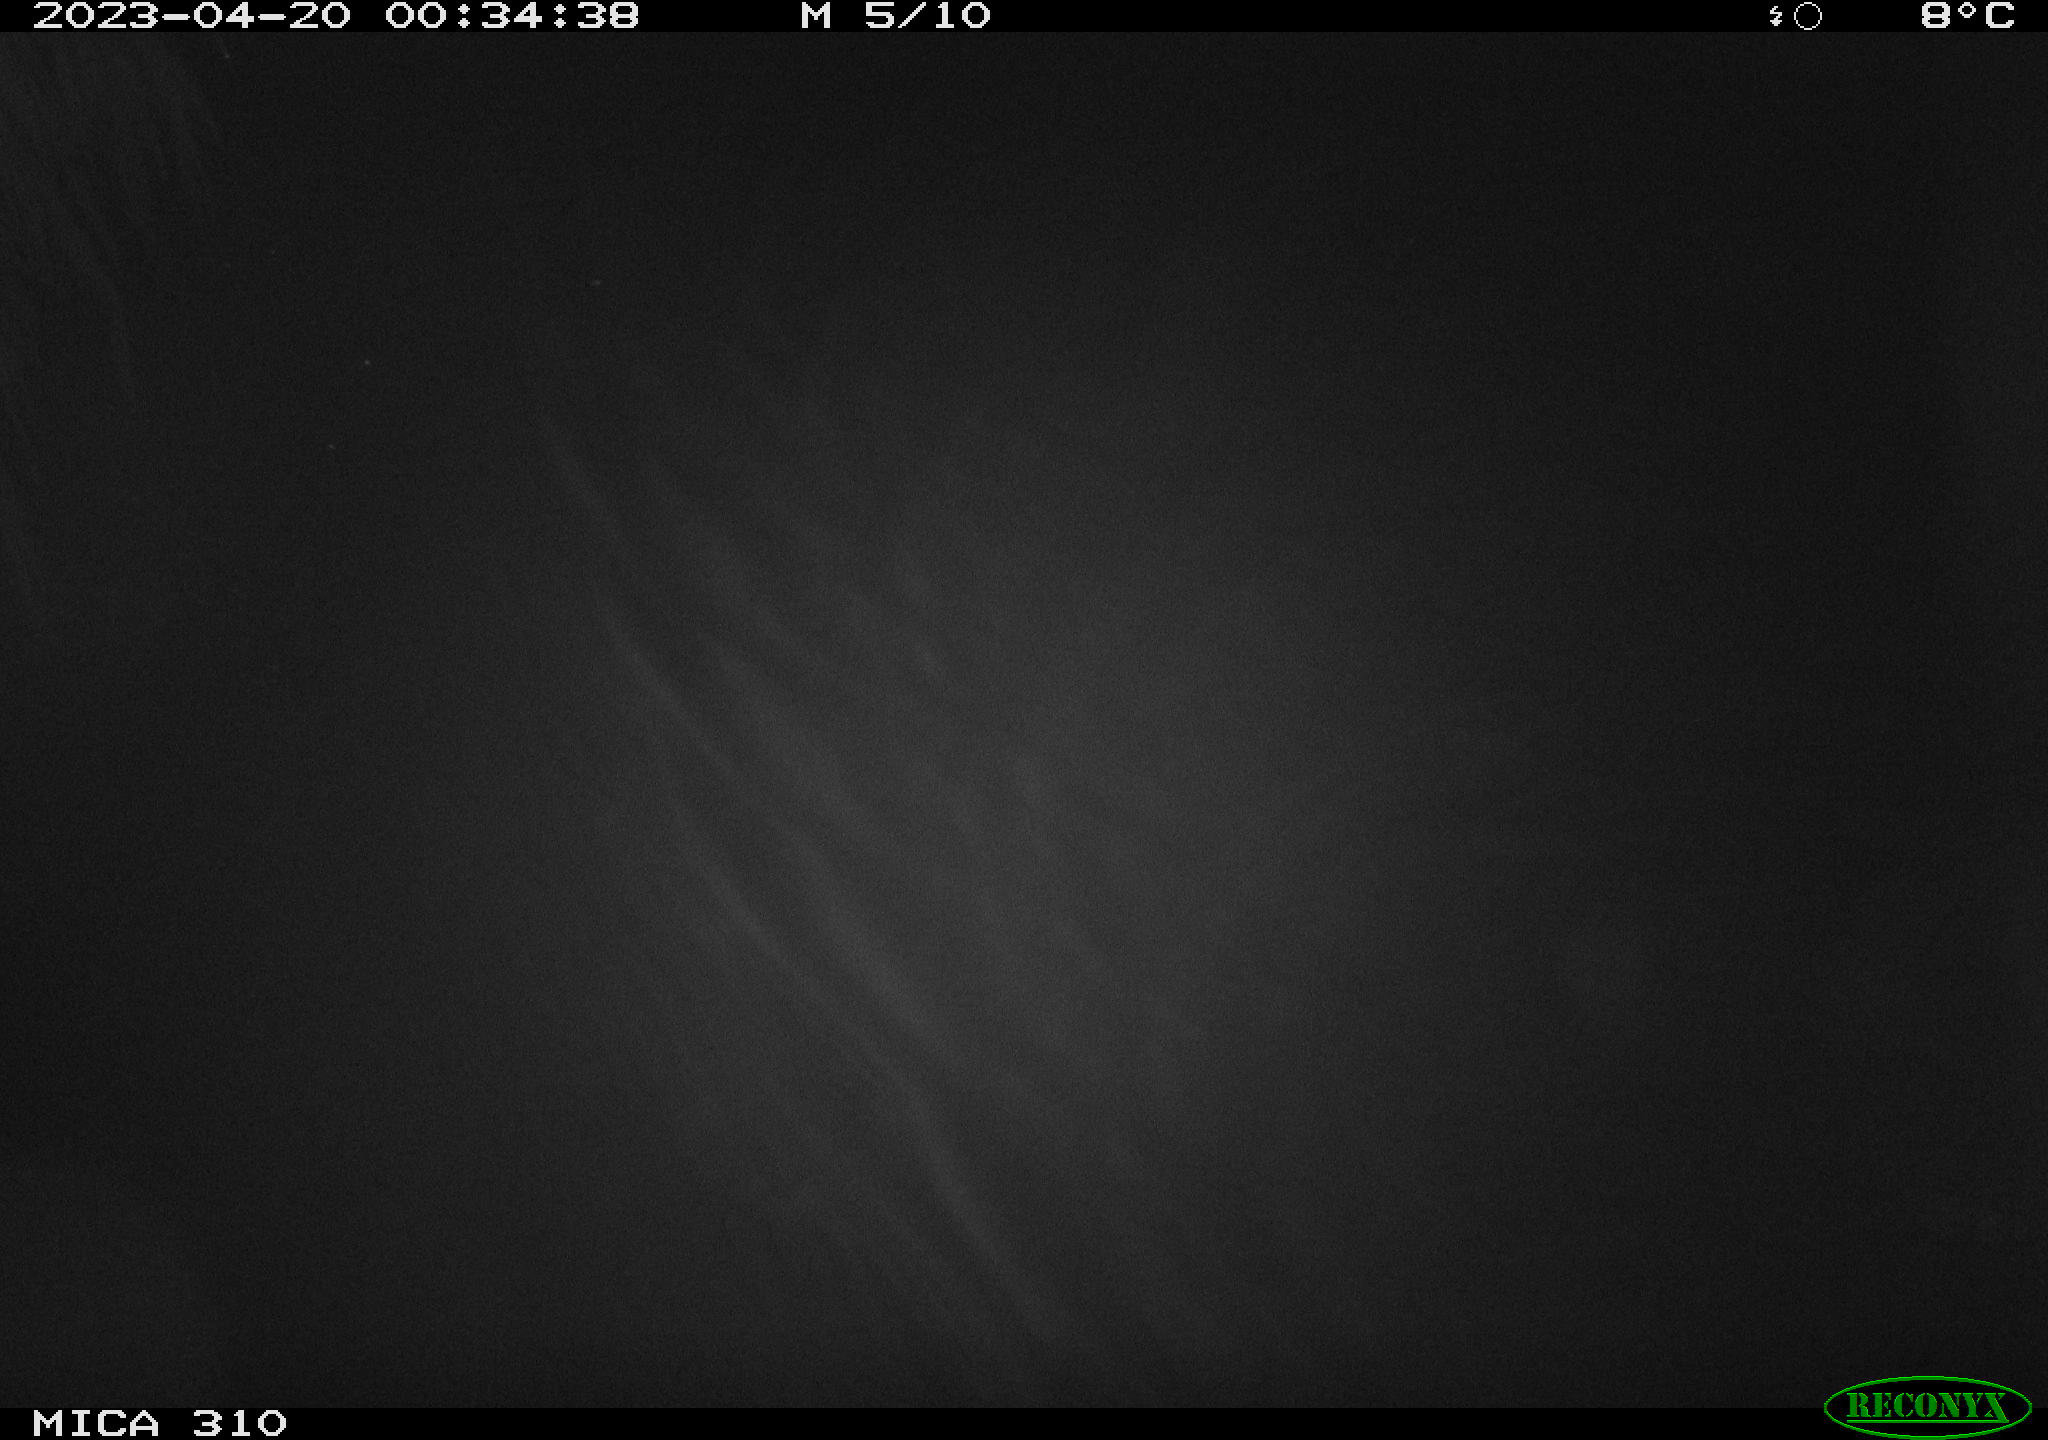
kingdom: Animalia
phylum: Chordata
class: Mammalia
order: Rodentia
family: Cricetidae
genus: Ondatra
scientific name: Ondatra zibethicus
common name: Muskrat
